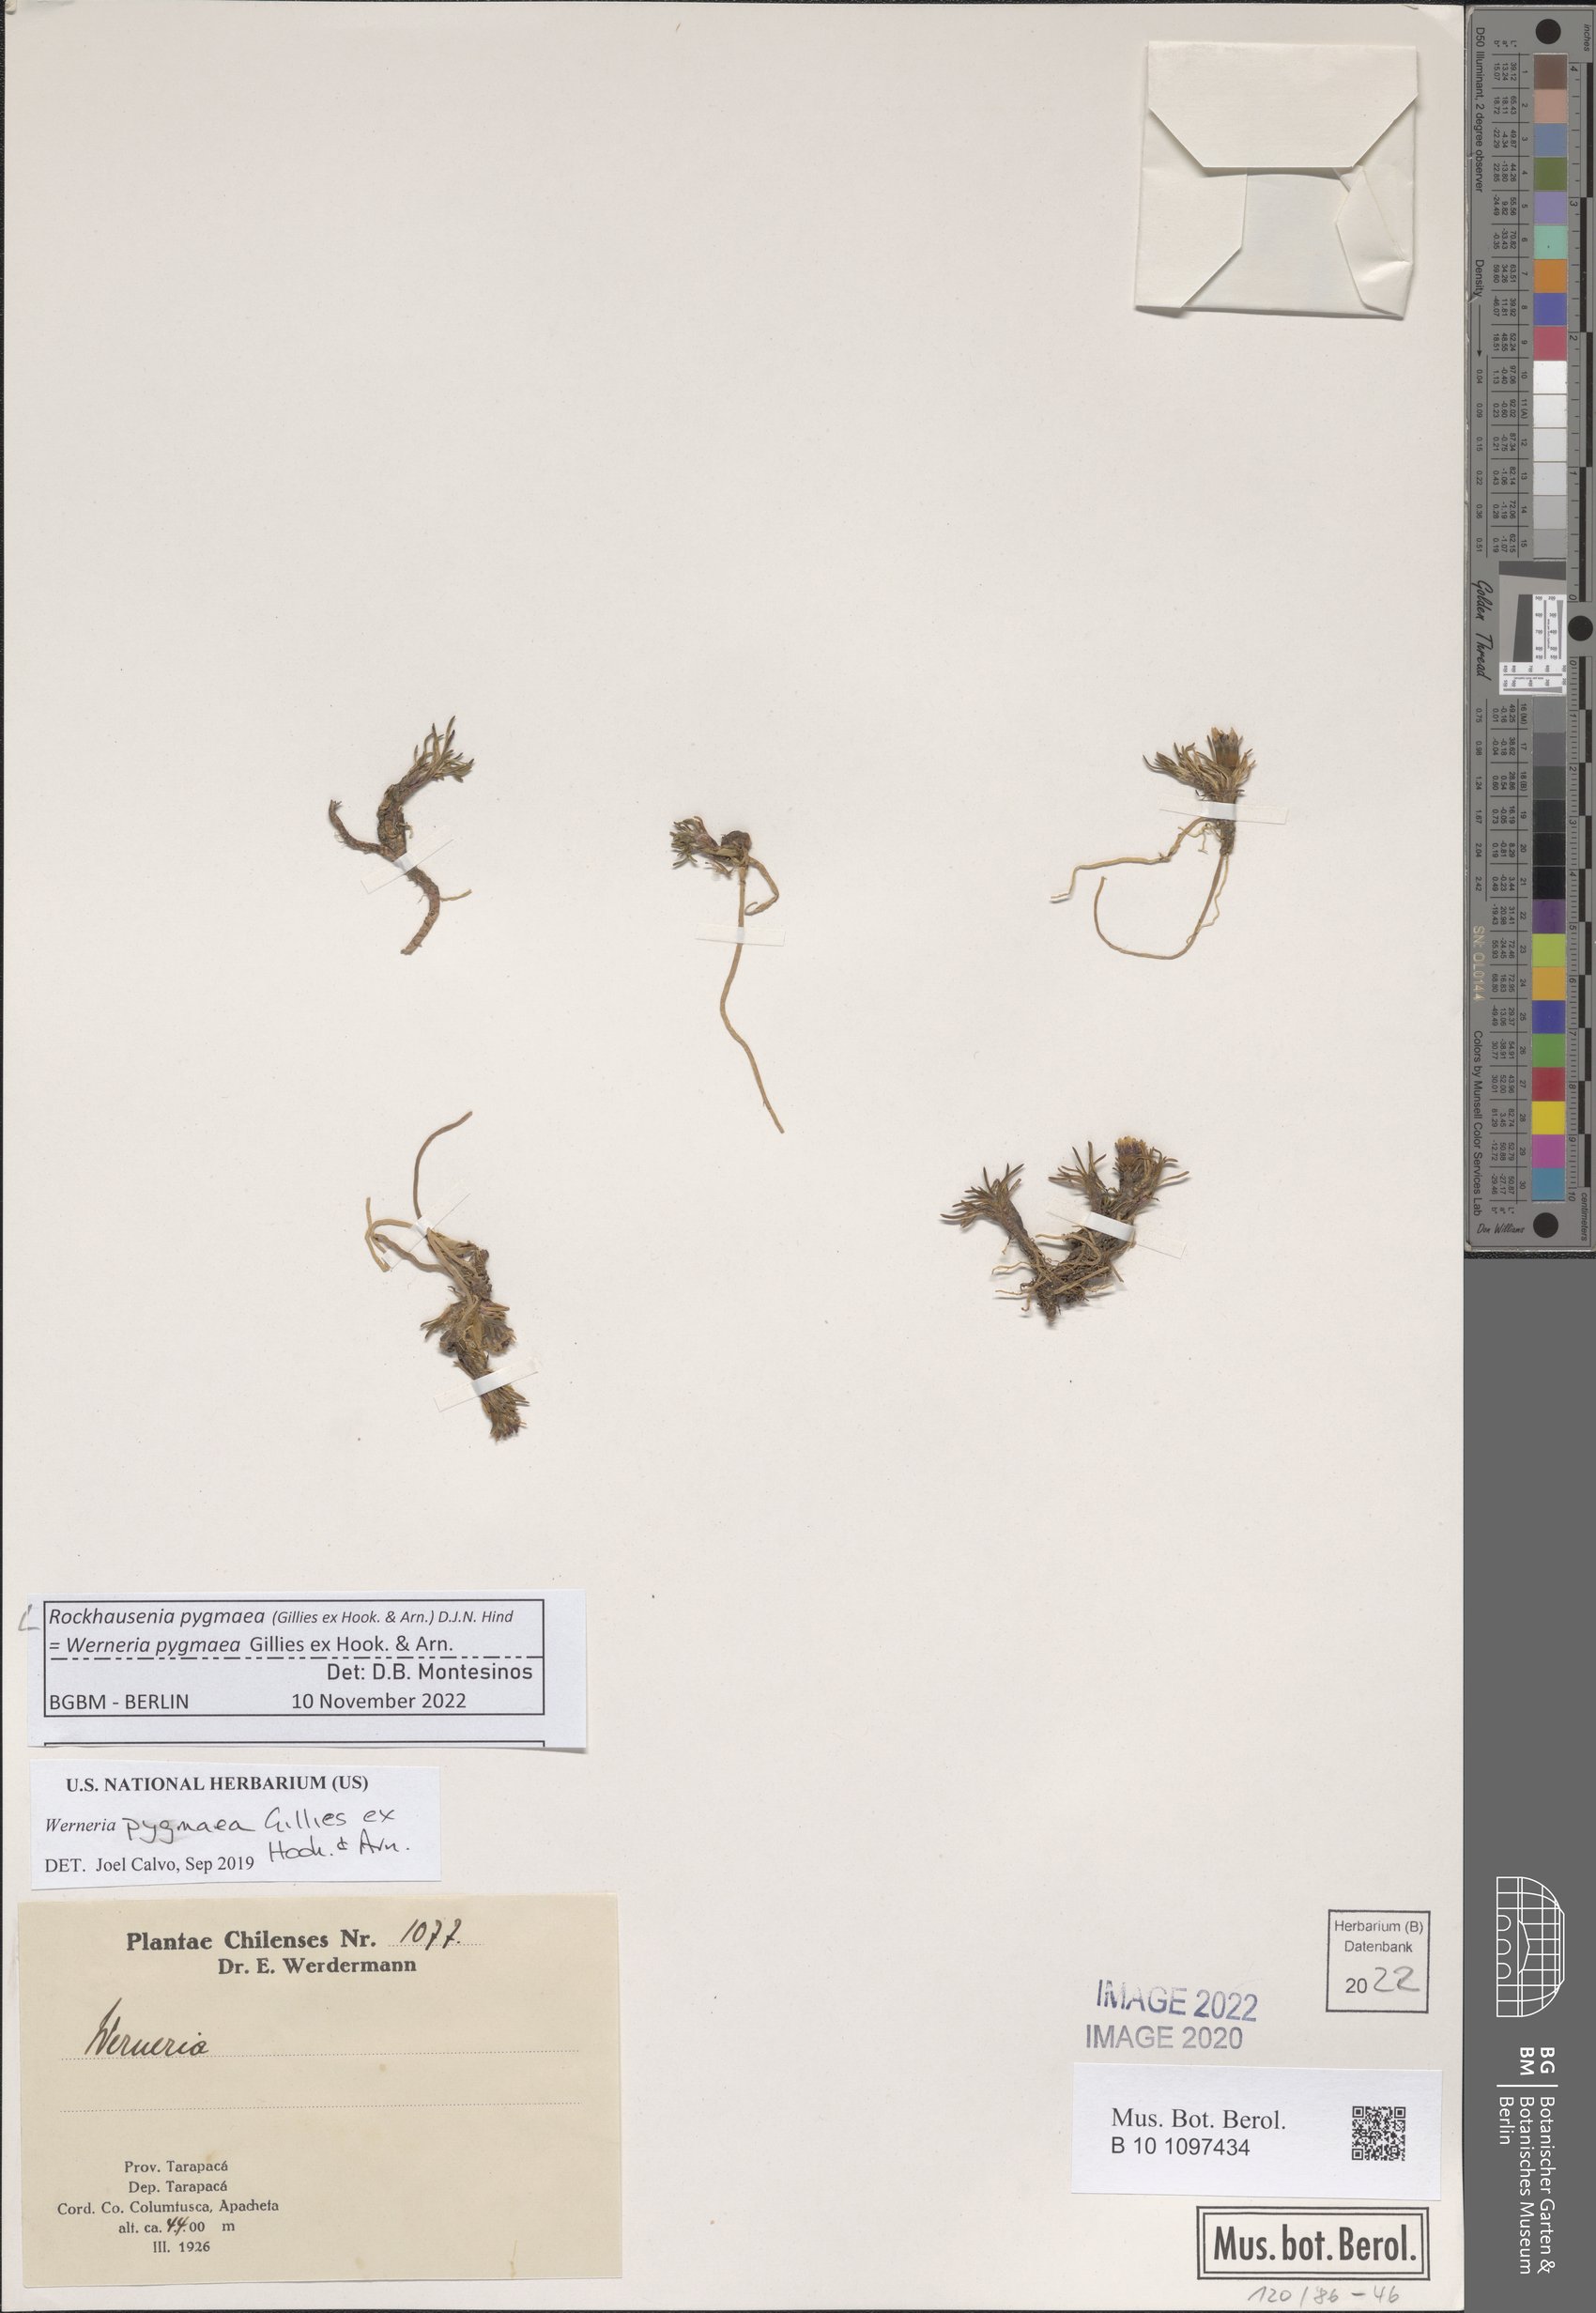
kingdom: Plantae
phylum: Tracheophyta
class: Magnoliopsida
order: Asterales
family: Asteraceae
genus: Rockhausenia
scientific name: Rockhausenia pygmaea
